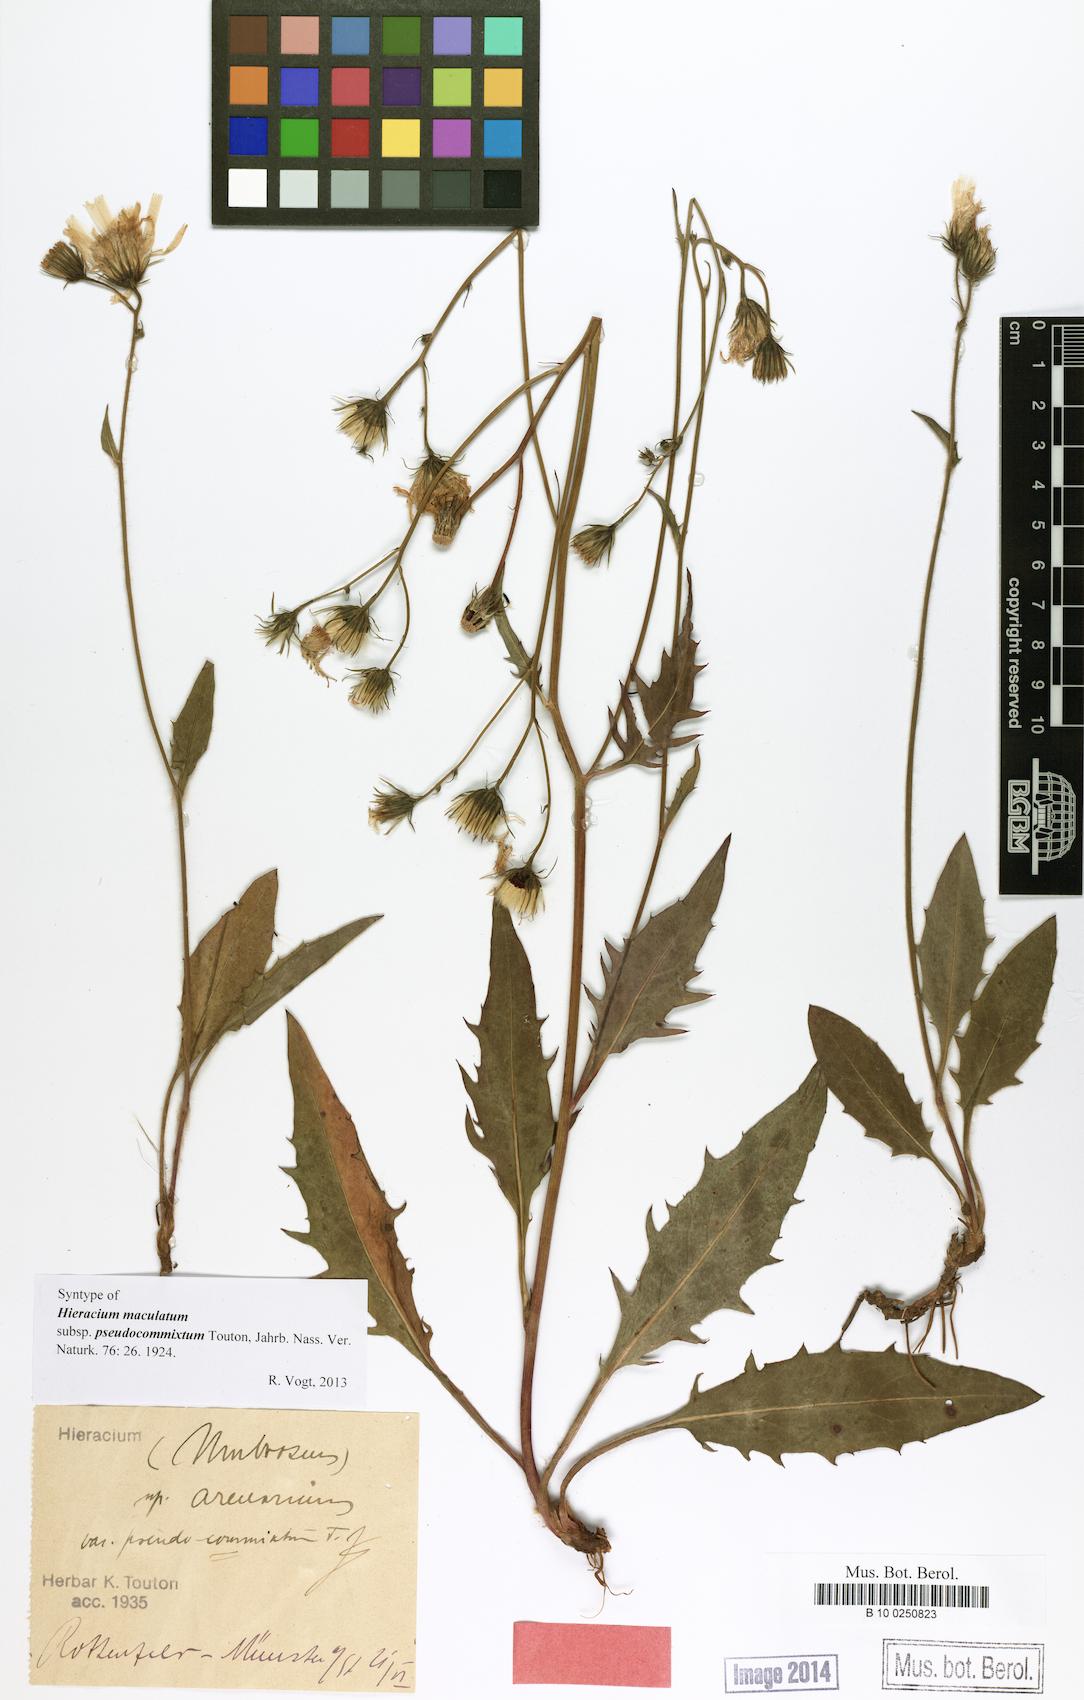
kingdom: Plantae
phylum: Tracheophyta
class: Magnoliopsida
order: Asterales
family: Asteraceae
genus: Hieracium
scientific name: Hieracium maculatum
